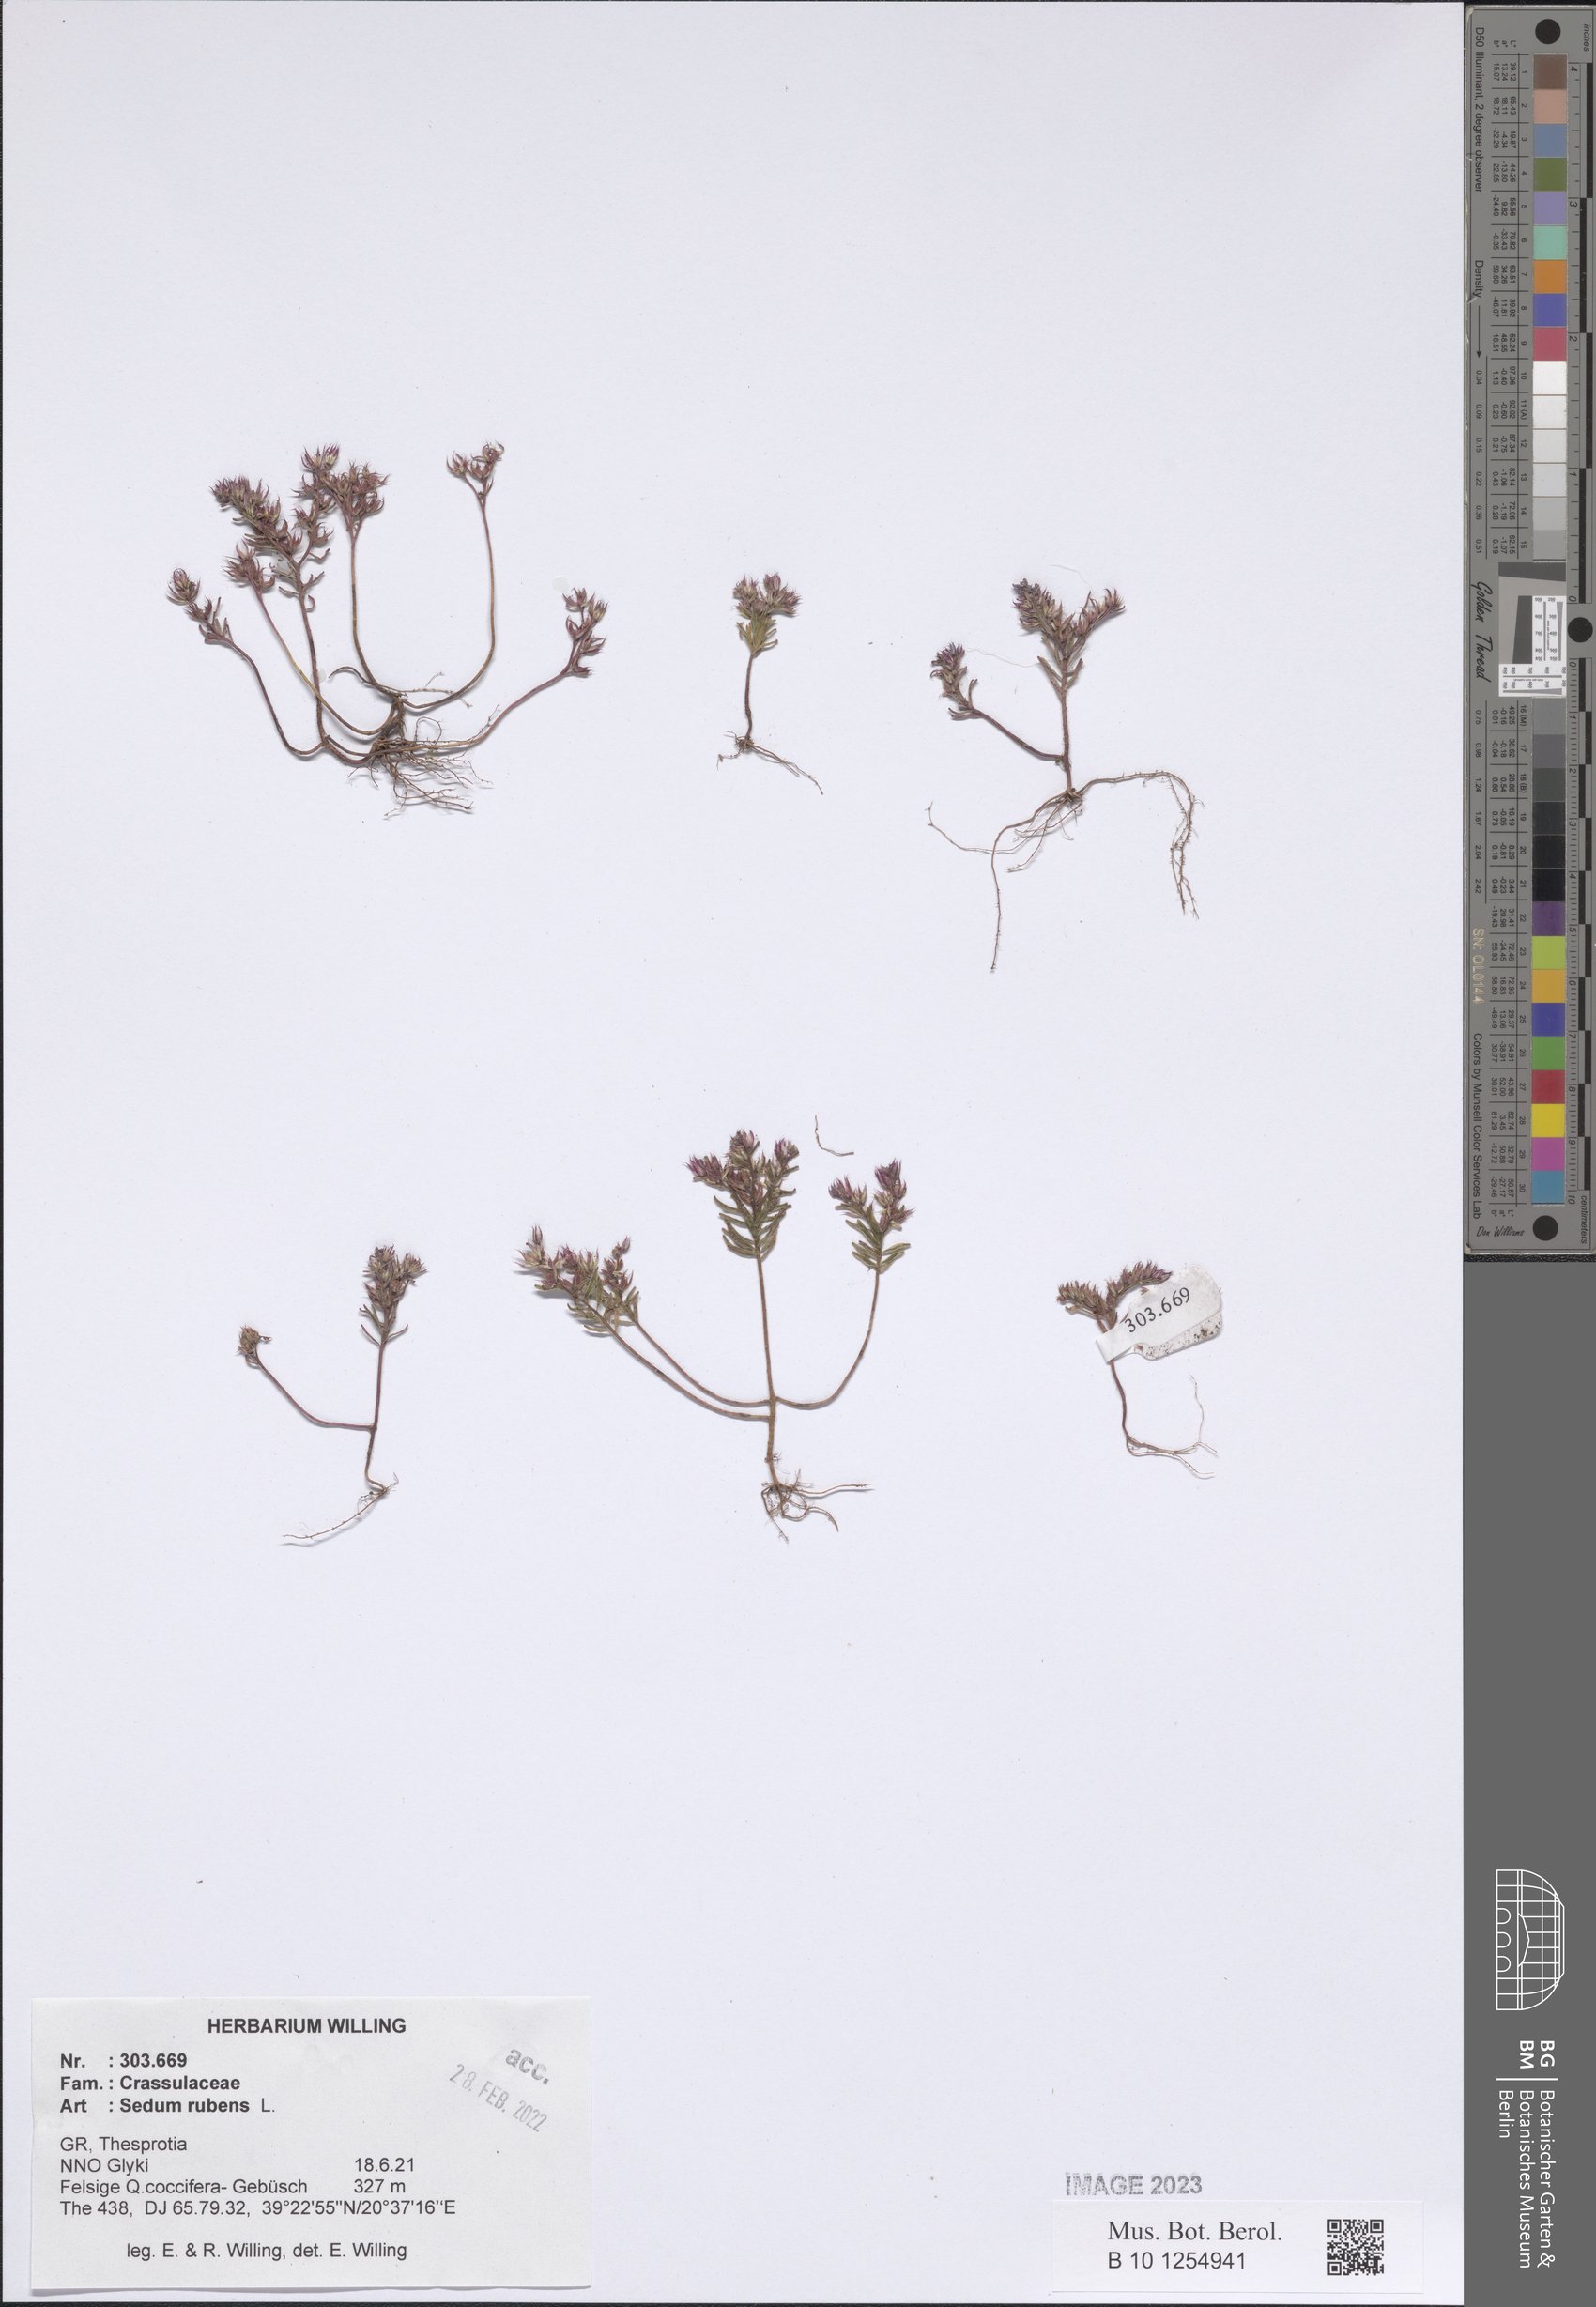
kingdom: Plantae
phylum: Tracheophyta
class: Magnoliopsida
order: Saxifragales
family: Crassulaceae
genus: Sedum
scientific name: Sedum rubens
